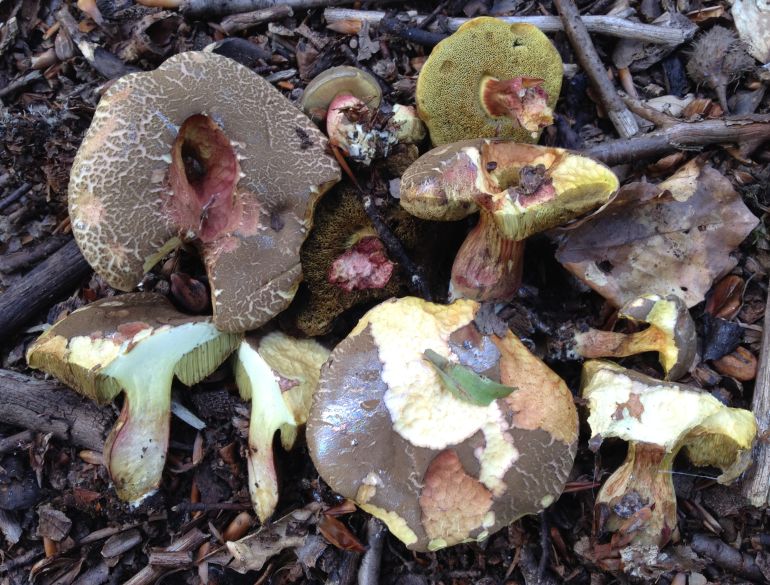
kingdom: Fungi
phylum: Basidiomycota
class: Agaricomycetes
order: Boletales
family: Boletaceae
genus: Xerocomellus
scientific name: Xerocomellus chrysenteron
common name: rødsprukken rørhat
